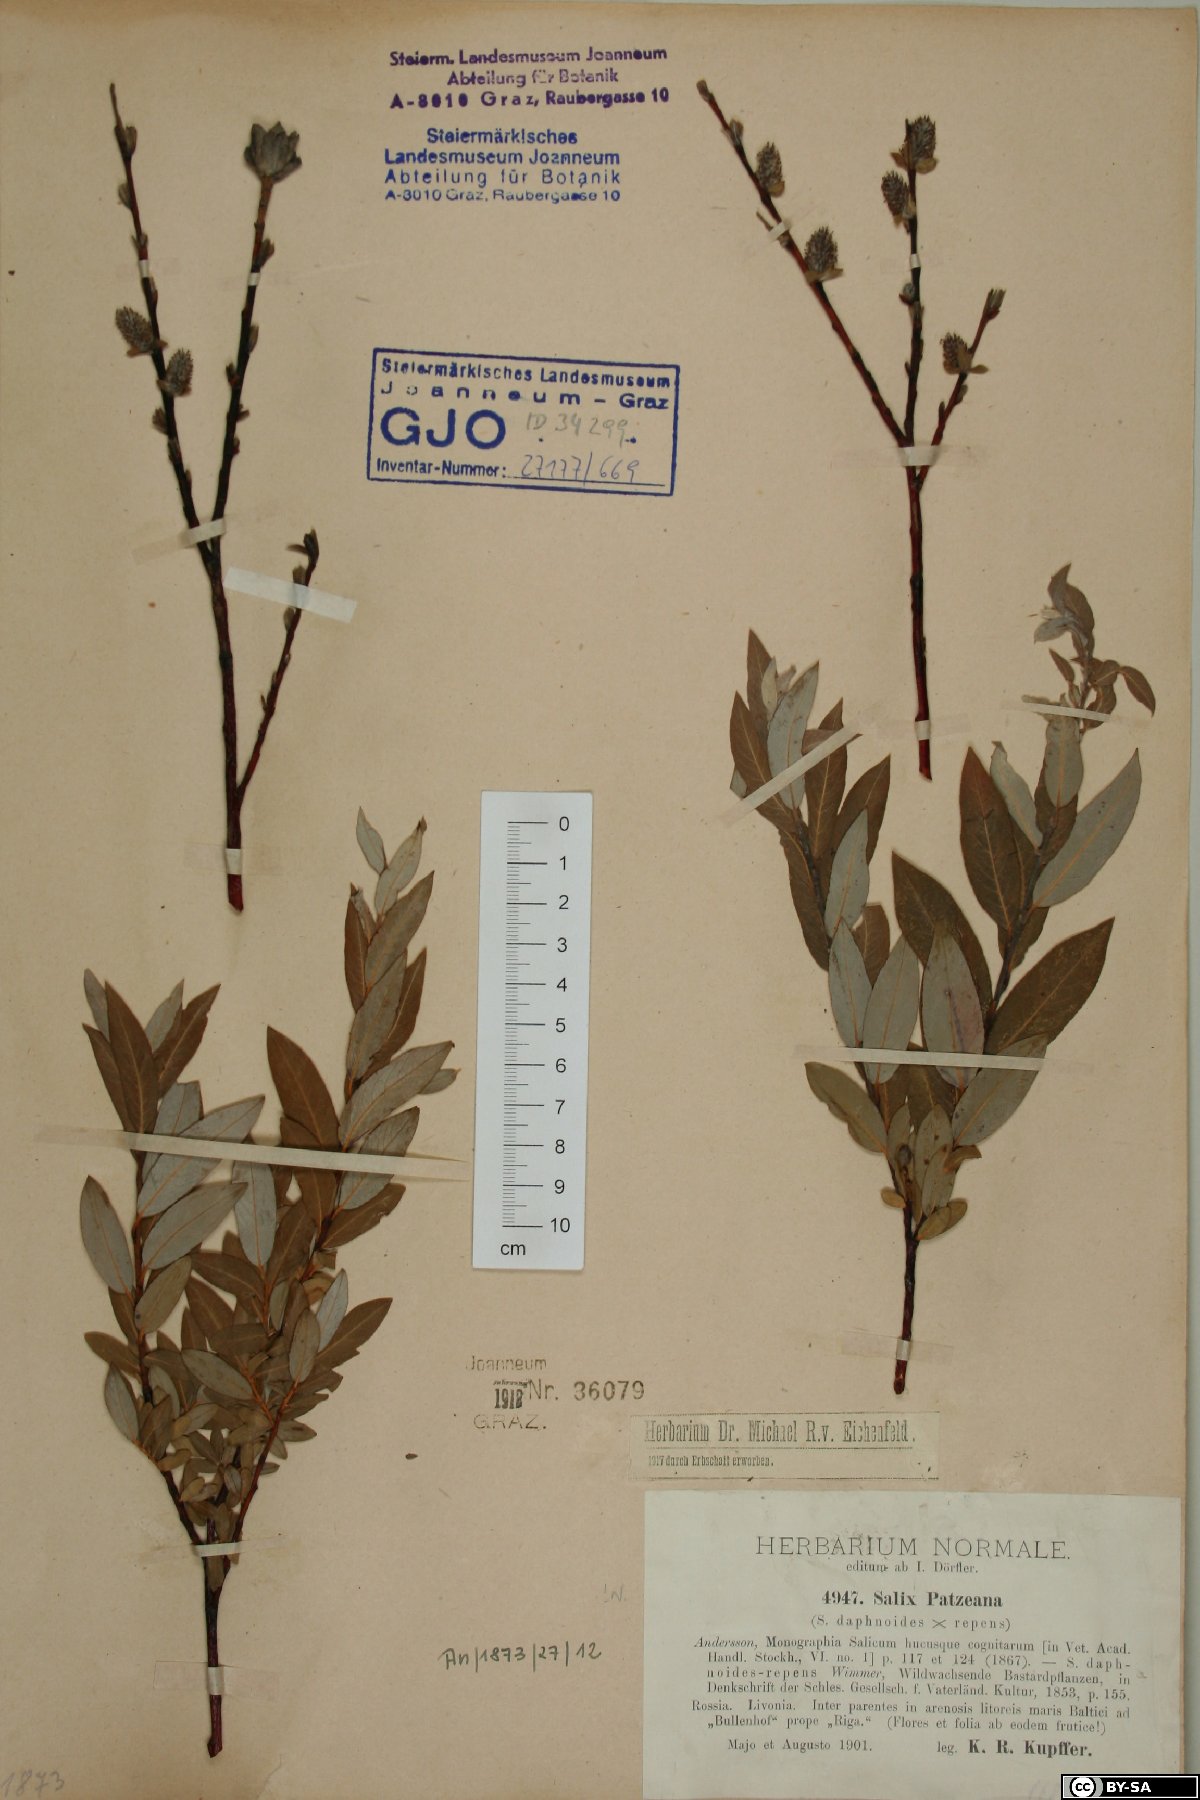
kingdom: Plantae
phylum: Tracheophyta
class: Magnoliopsida
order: Malpighiales
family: Salicaceae
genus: Salix
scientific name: Salix repens
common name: Creeping willow
